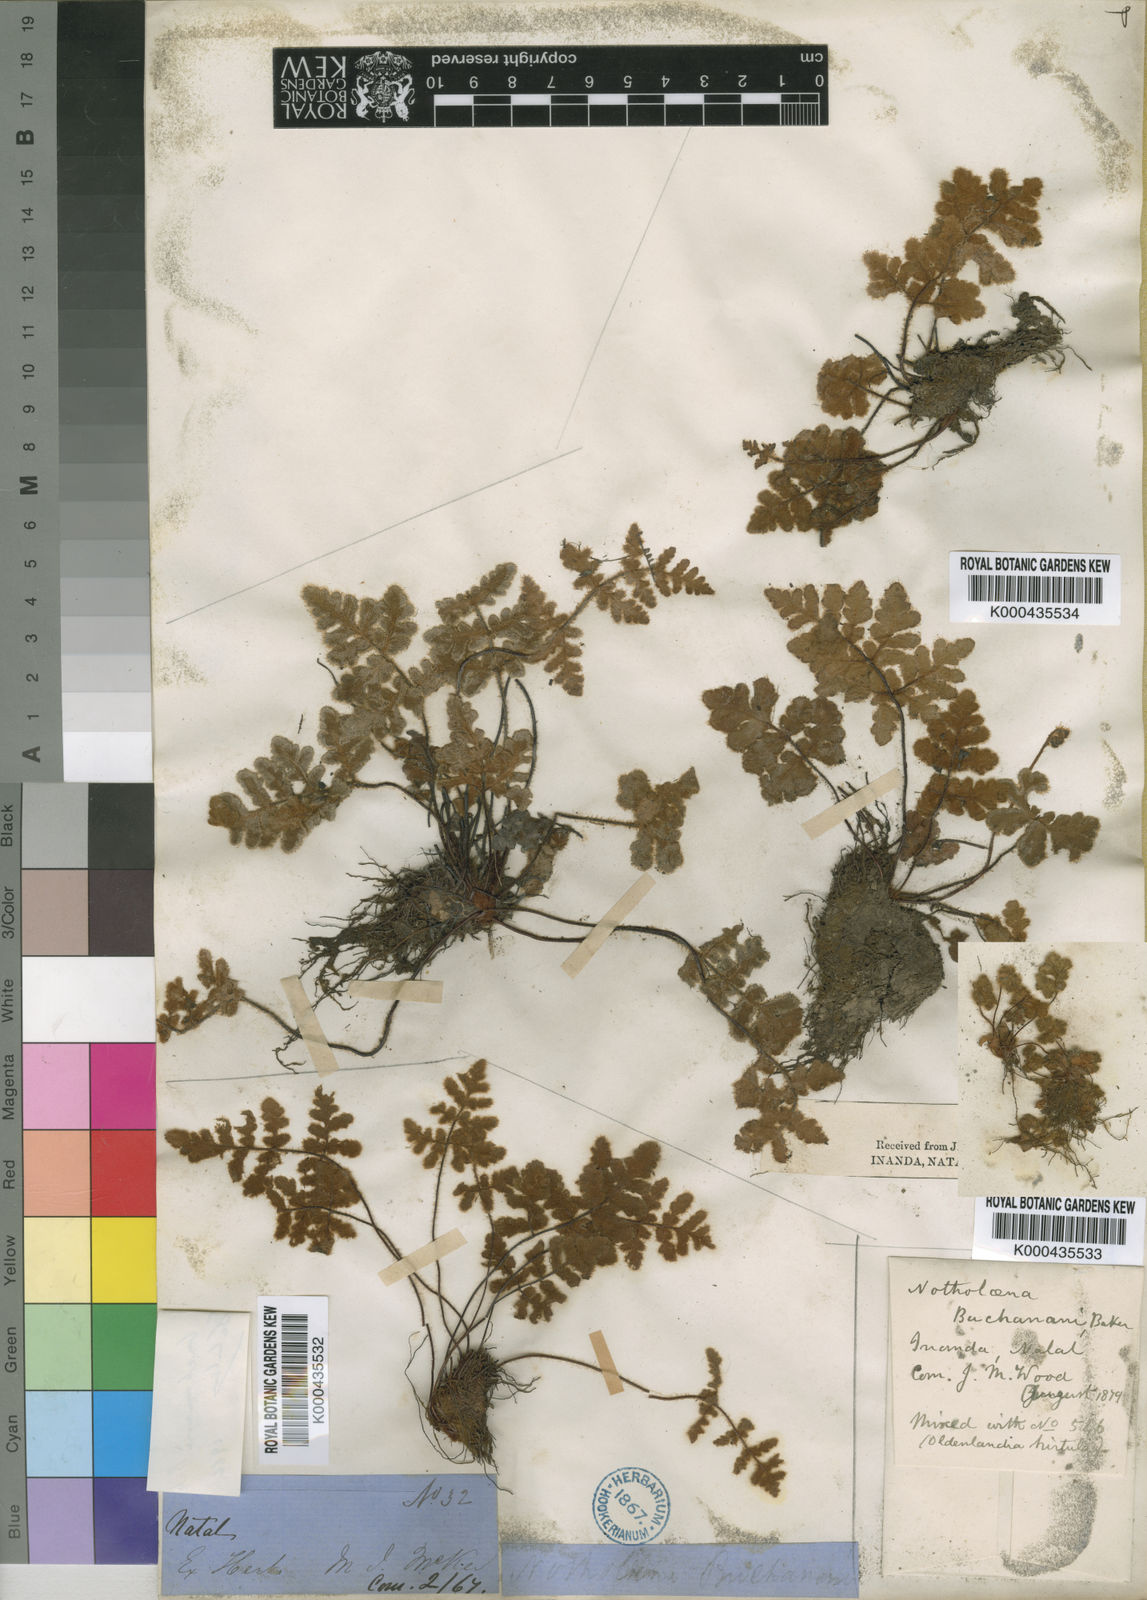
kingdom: Plantae
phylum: Tracheophyta
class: Polypodiopsida
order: Polypodiales
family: Pteridaceae
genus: Cheilanthes
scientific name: Cheilanthes inaequalis
